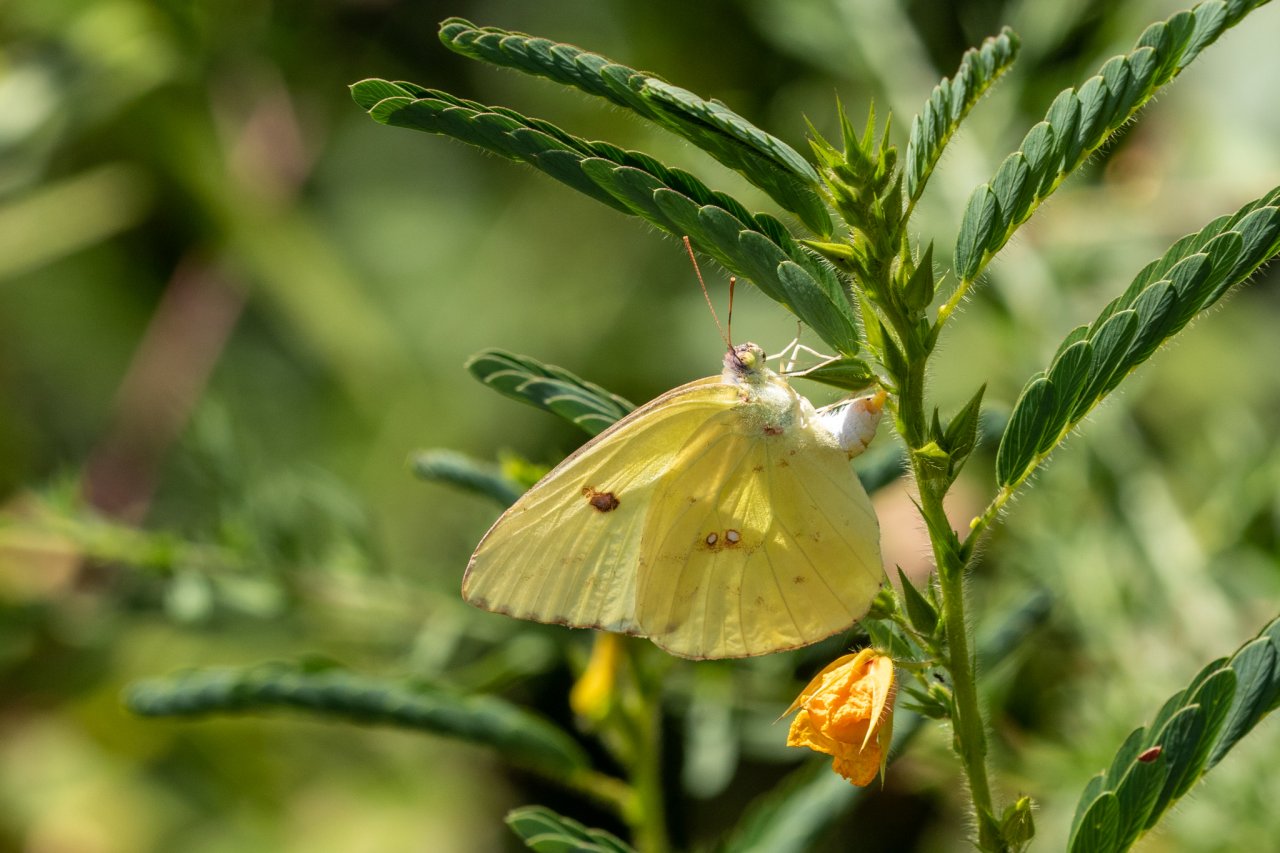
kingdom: Animalia
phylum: Arthropoda
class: Insecta
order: Lepidoptera
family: Pieridae
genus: Phoebis
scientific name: Phoebis sennae
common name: Cloudless Sulphur
